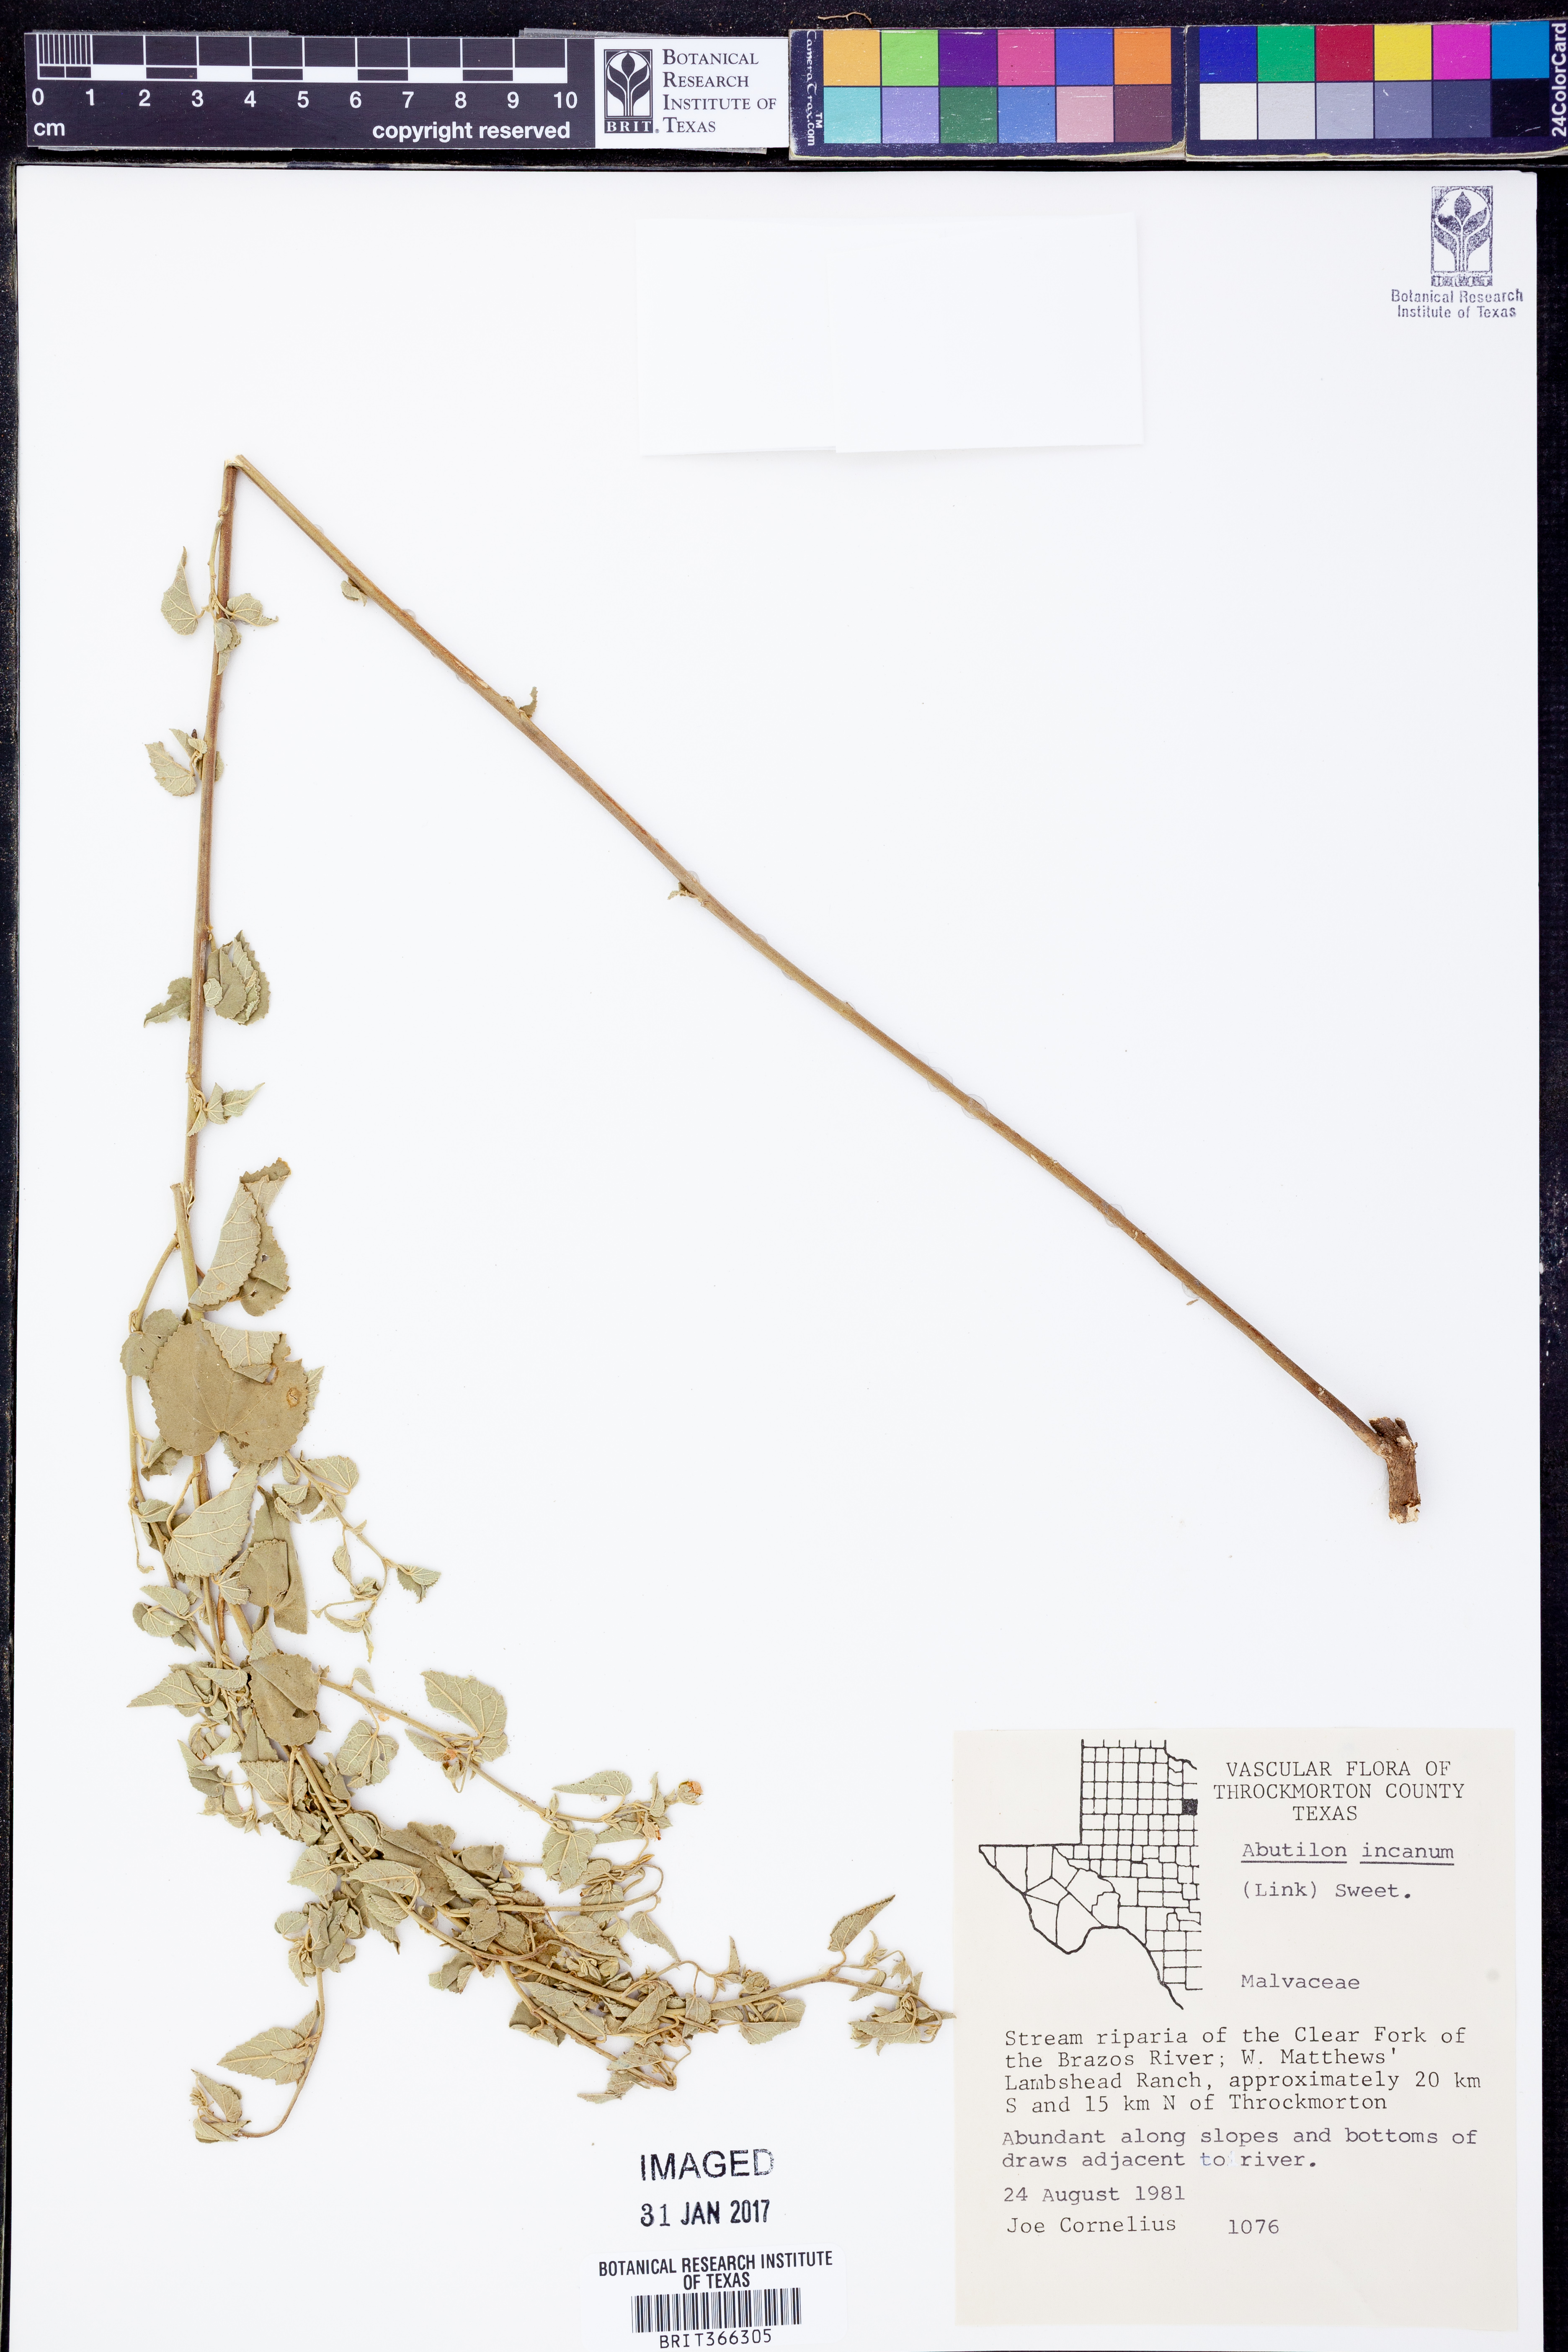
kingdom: Plantae
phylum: Tracheophyta
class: Magnoliopsida
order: Malvales
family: Malvaceae
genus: Abutilon
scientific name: Abutilon incanum
